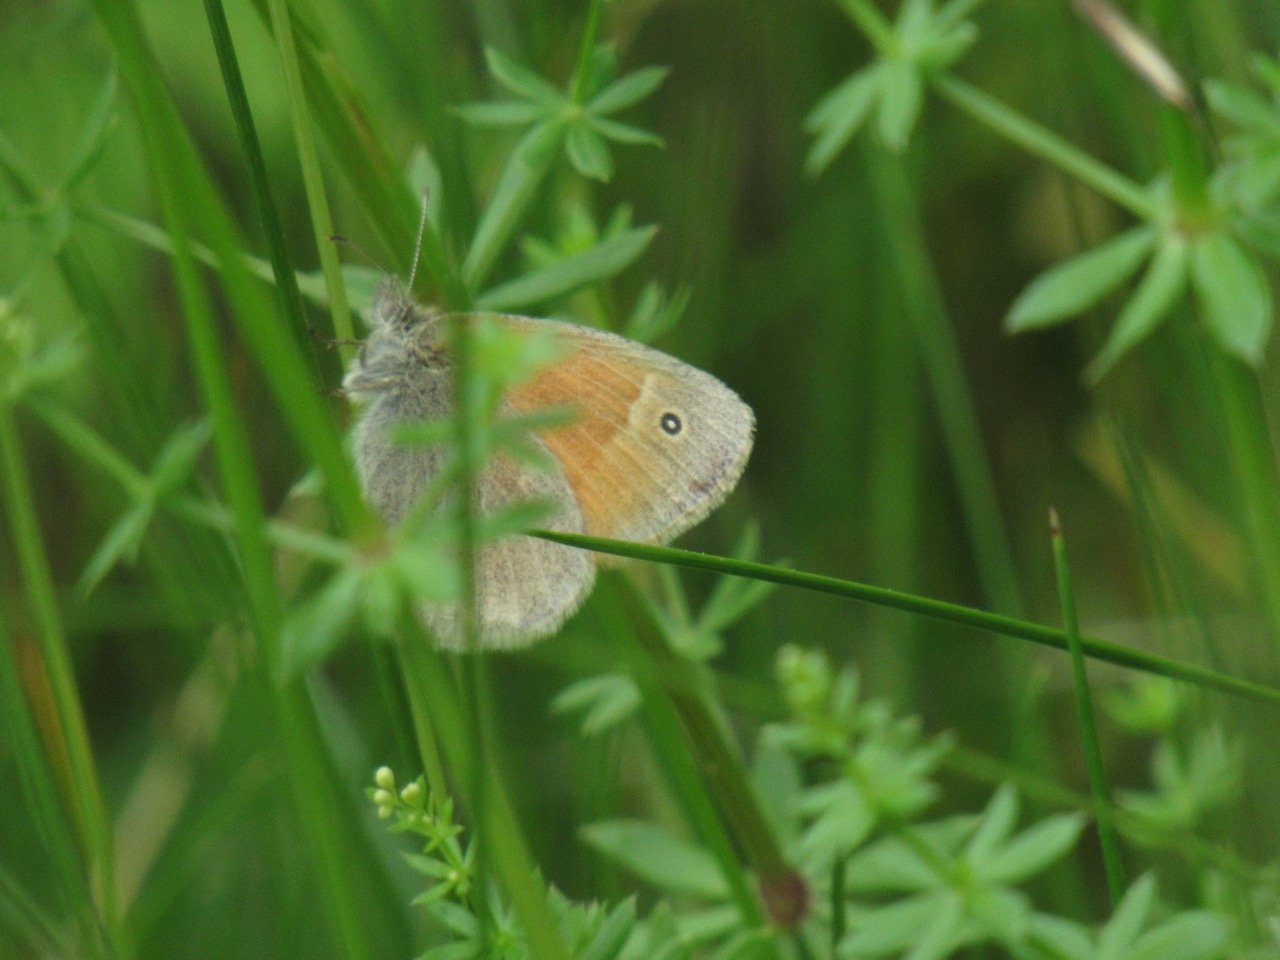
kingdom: Animalia
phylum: Arthropoda
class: Insecta
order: Lepidoptera
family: Nymphalidae
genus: Coenonympha
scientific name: Coenonympha tullia
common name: Large Heath
